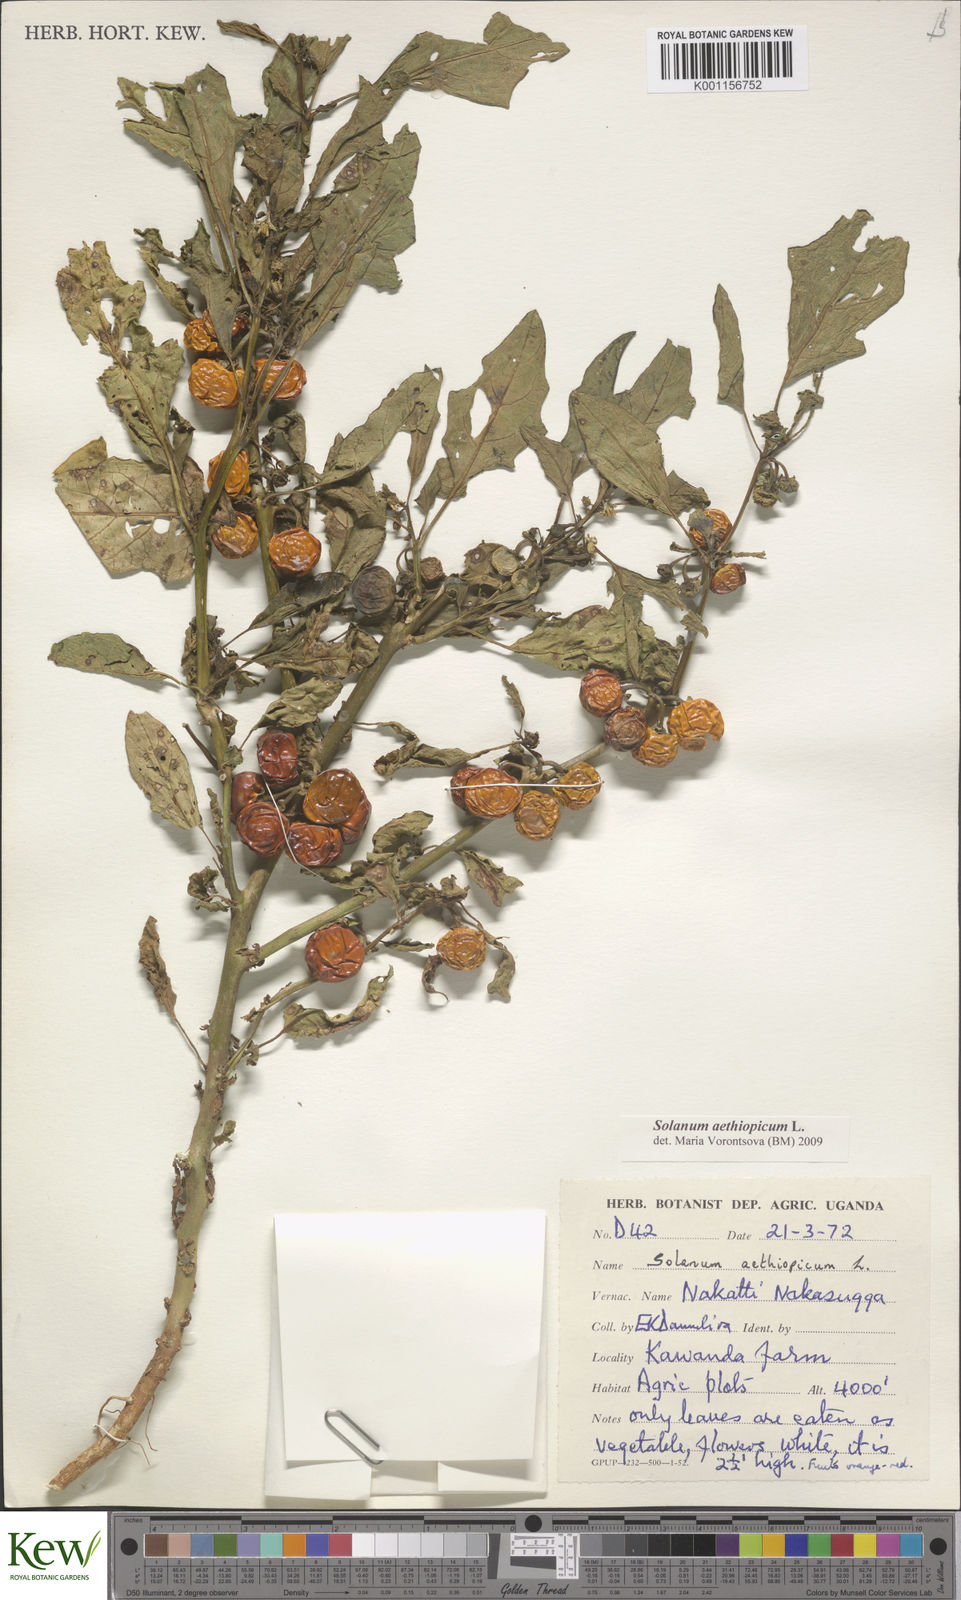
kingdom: Plantae
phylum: Tracheophyta
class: Magnoliopsida
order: Solanales
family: Solanaceae
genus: Solanum
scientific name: Solanum aethiopicum
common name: Gilo
